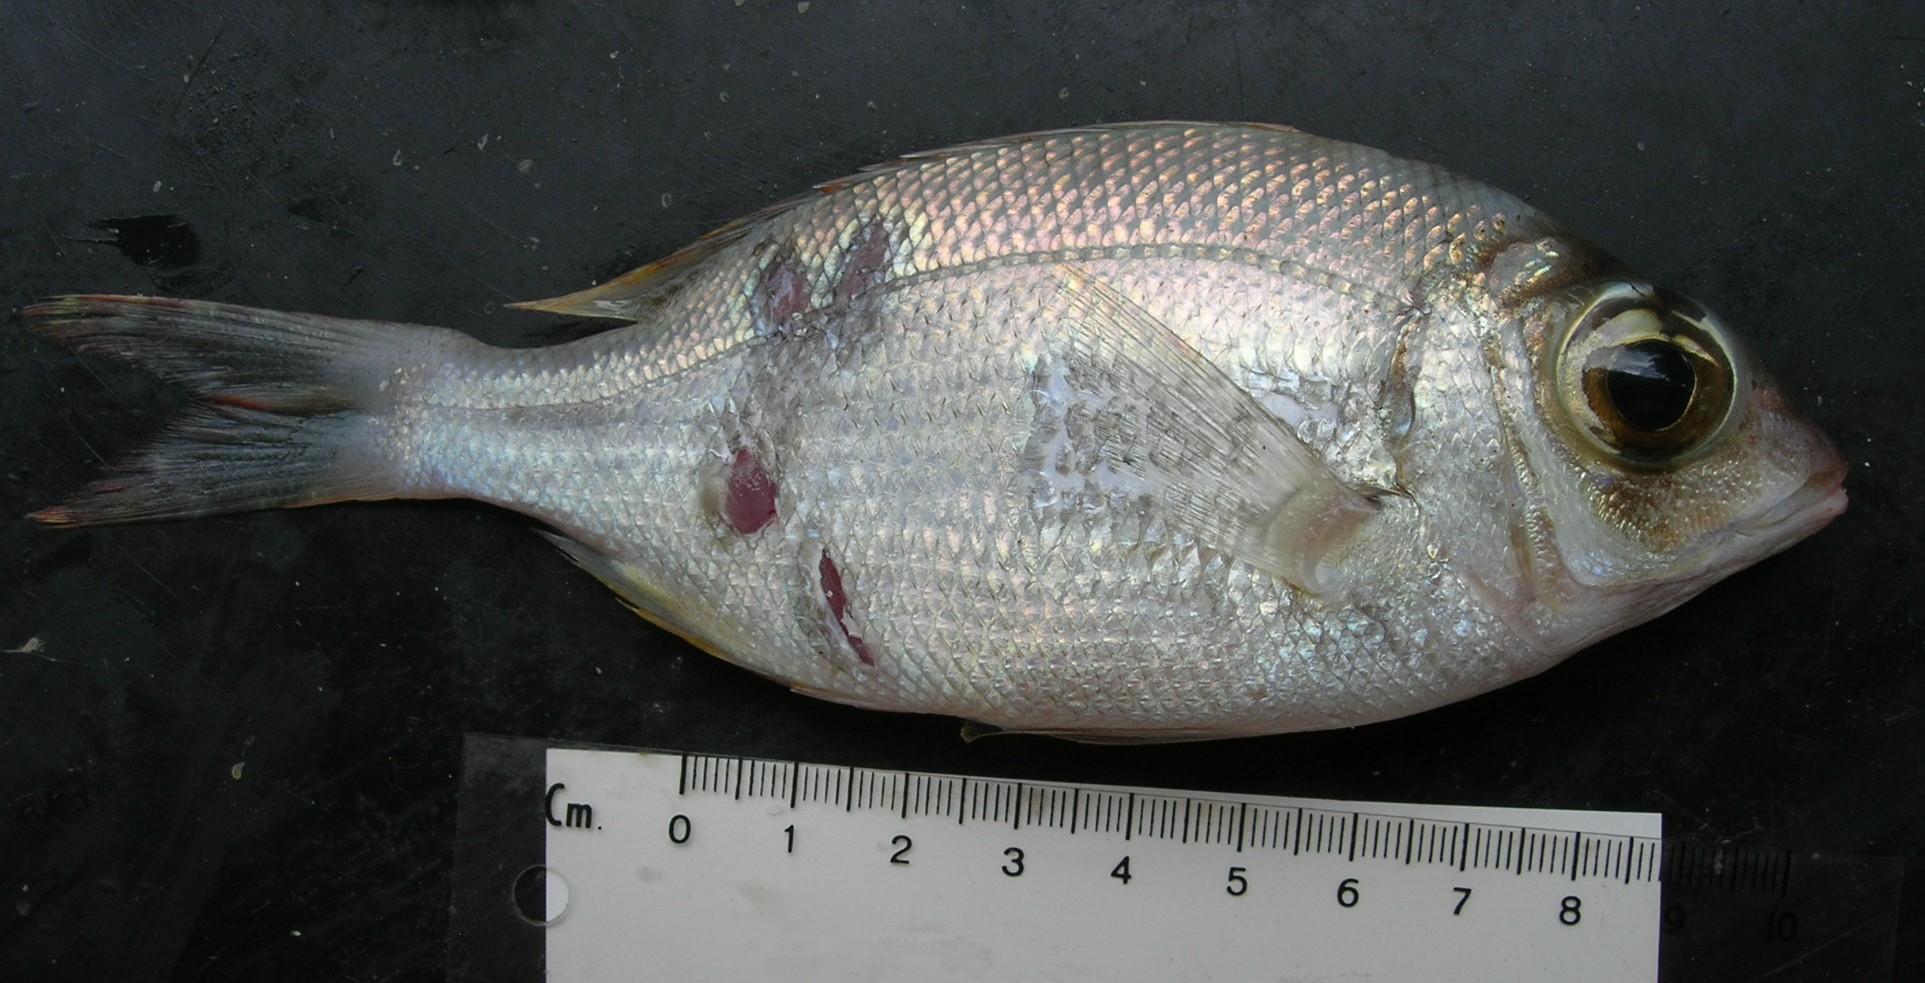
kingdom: Animalia
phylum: Chordata
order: Perciformes
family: Lethrinidae
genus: Gymnocranius
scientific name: Gymnocranius
